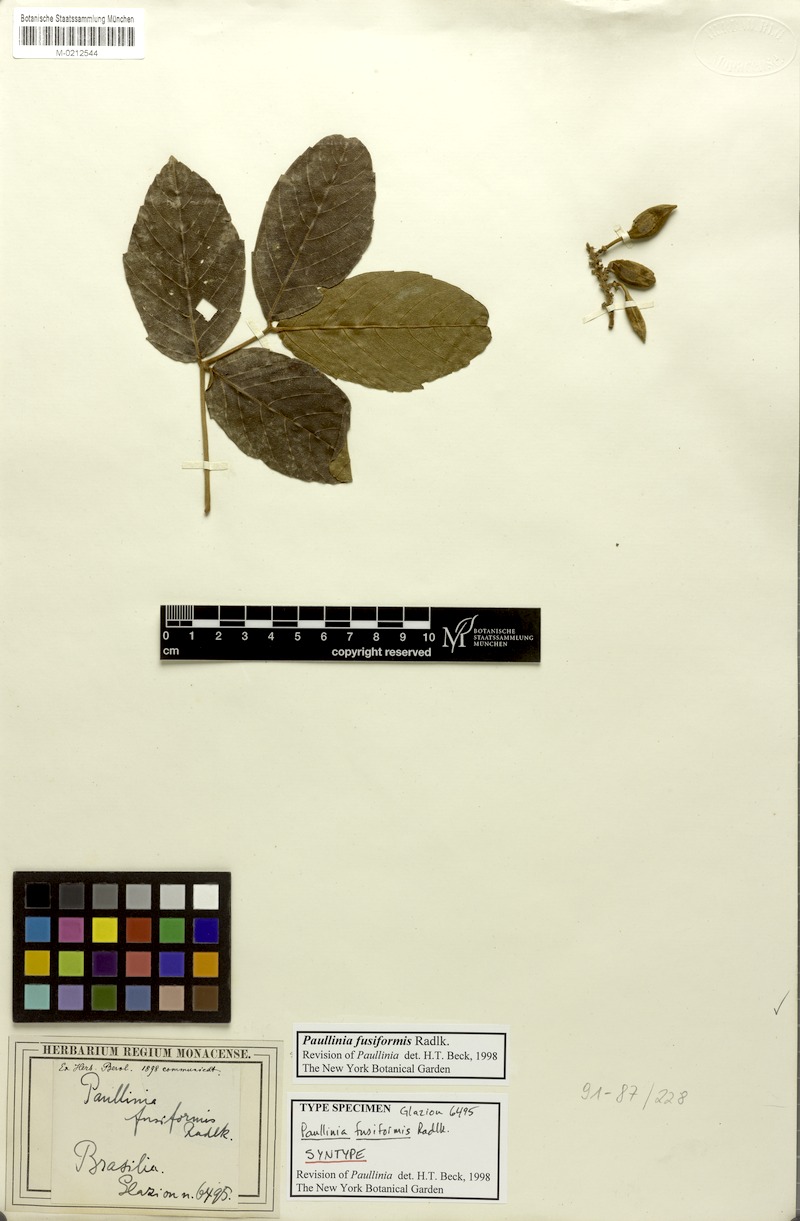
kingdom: Plantae
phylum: Tracheophyta
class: Magnoliopsida
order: Sapindales
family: Sapindaceae
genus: Paullinia
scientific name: Paullinia fusiformis
